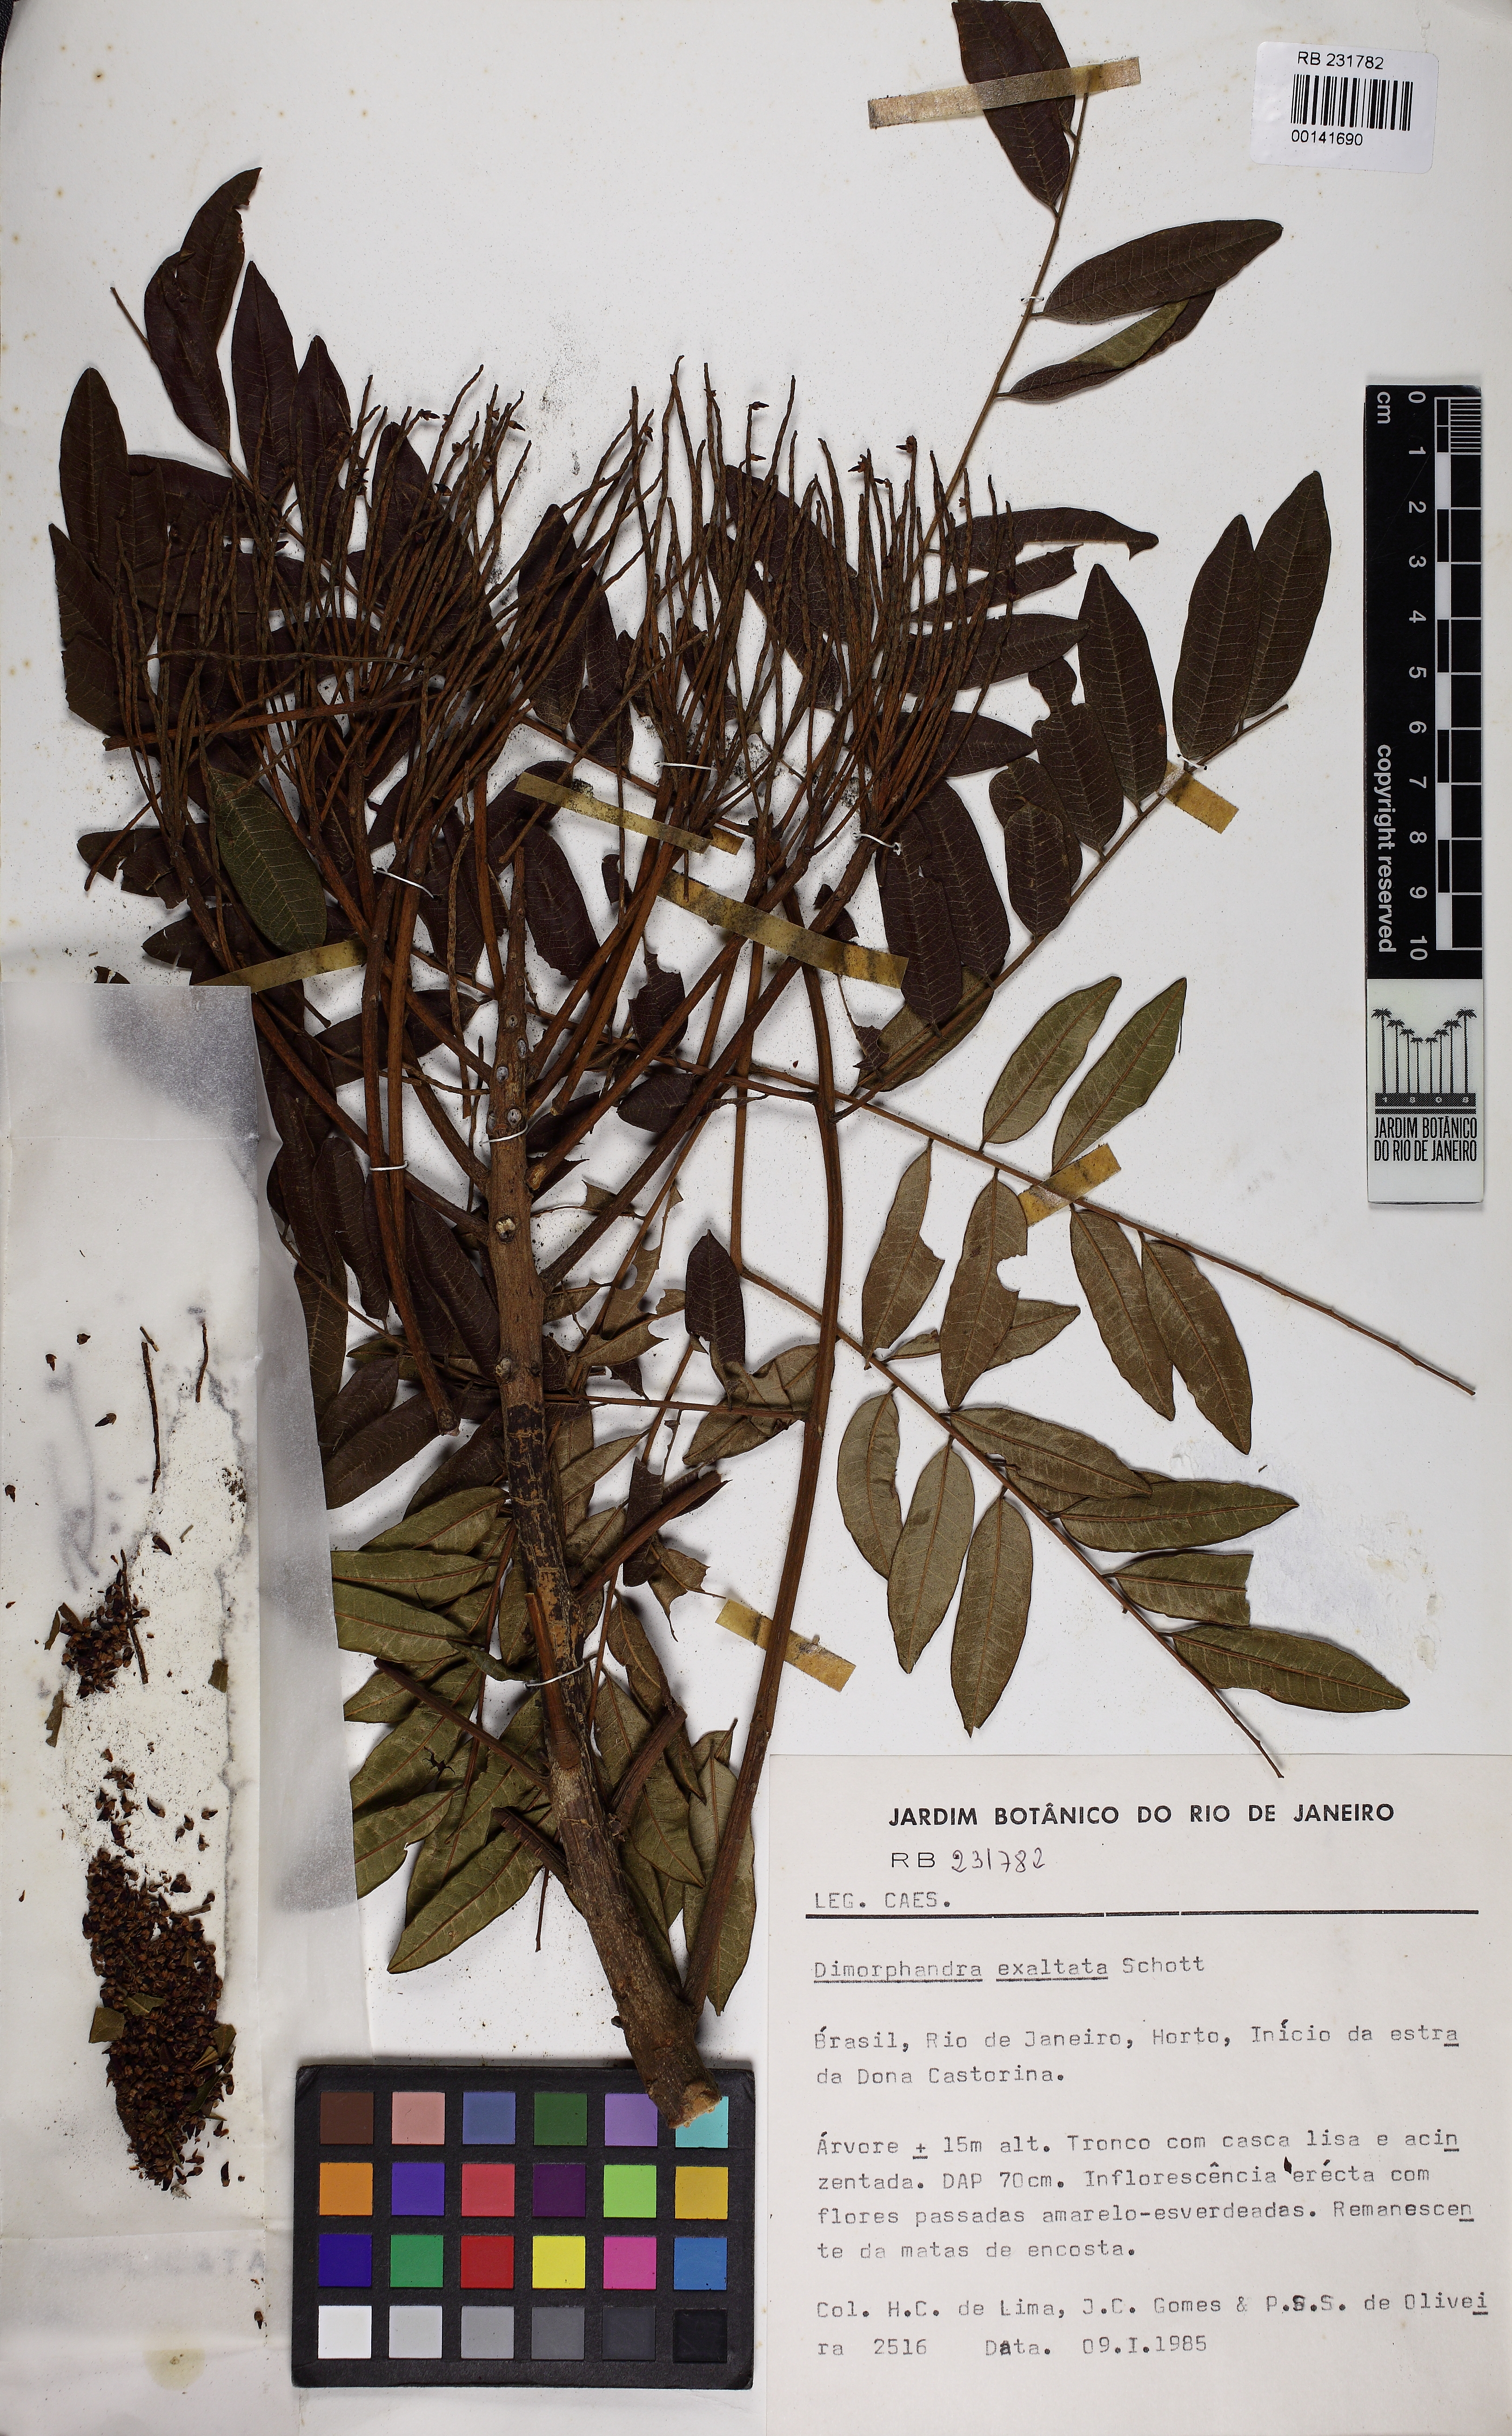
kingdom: Plantae
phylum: Tracheophyta
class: Magnoliopsida
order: Fabales
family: Fabaceae
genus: Dimorphandra
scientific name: Dimorphandra exaltata
